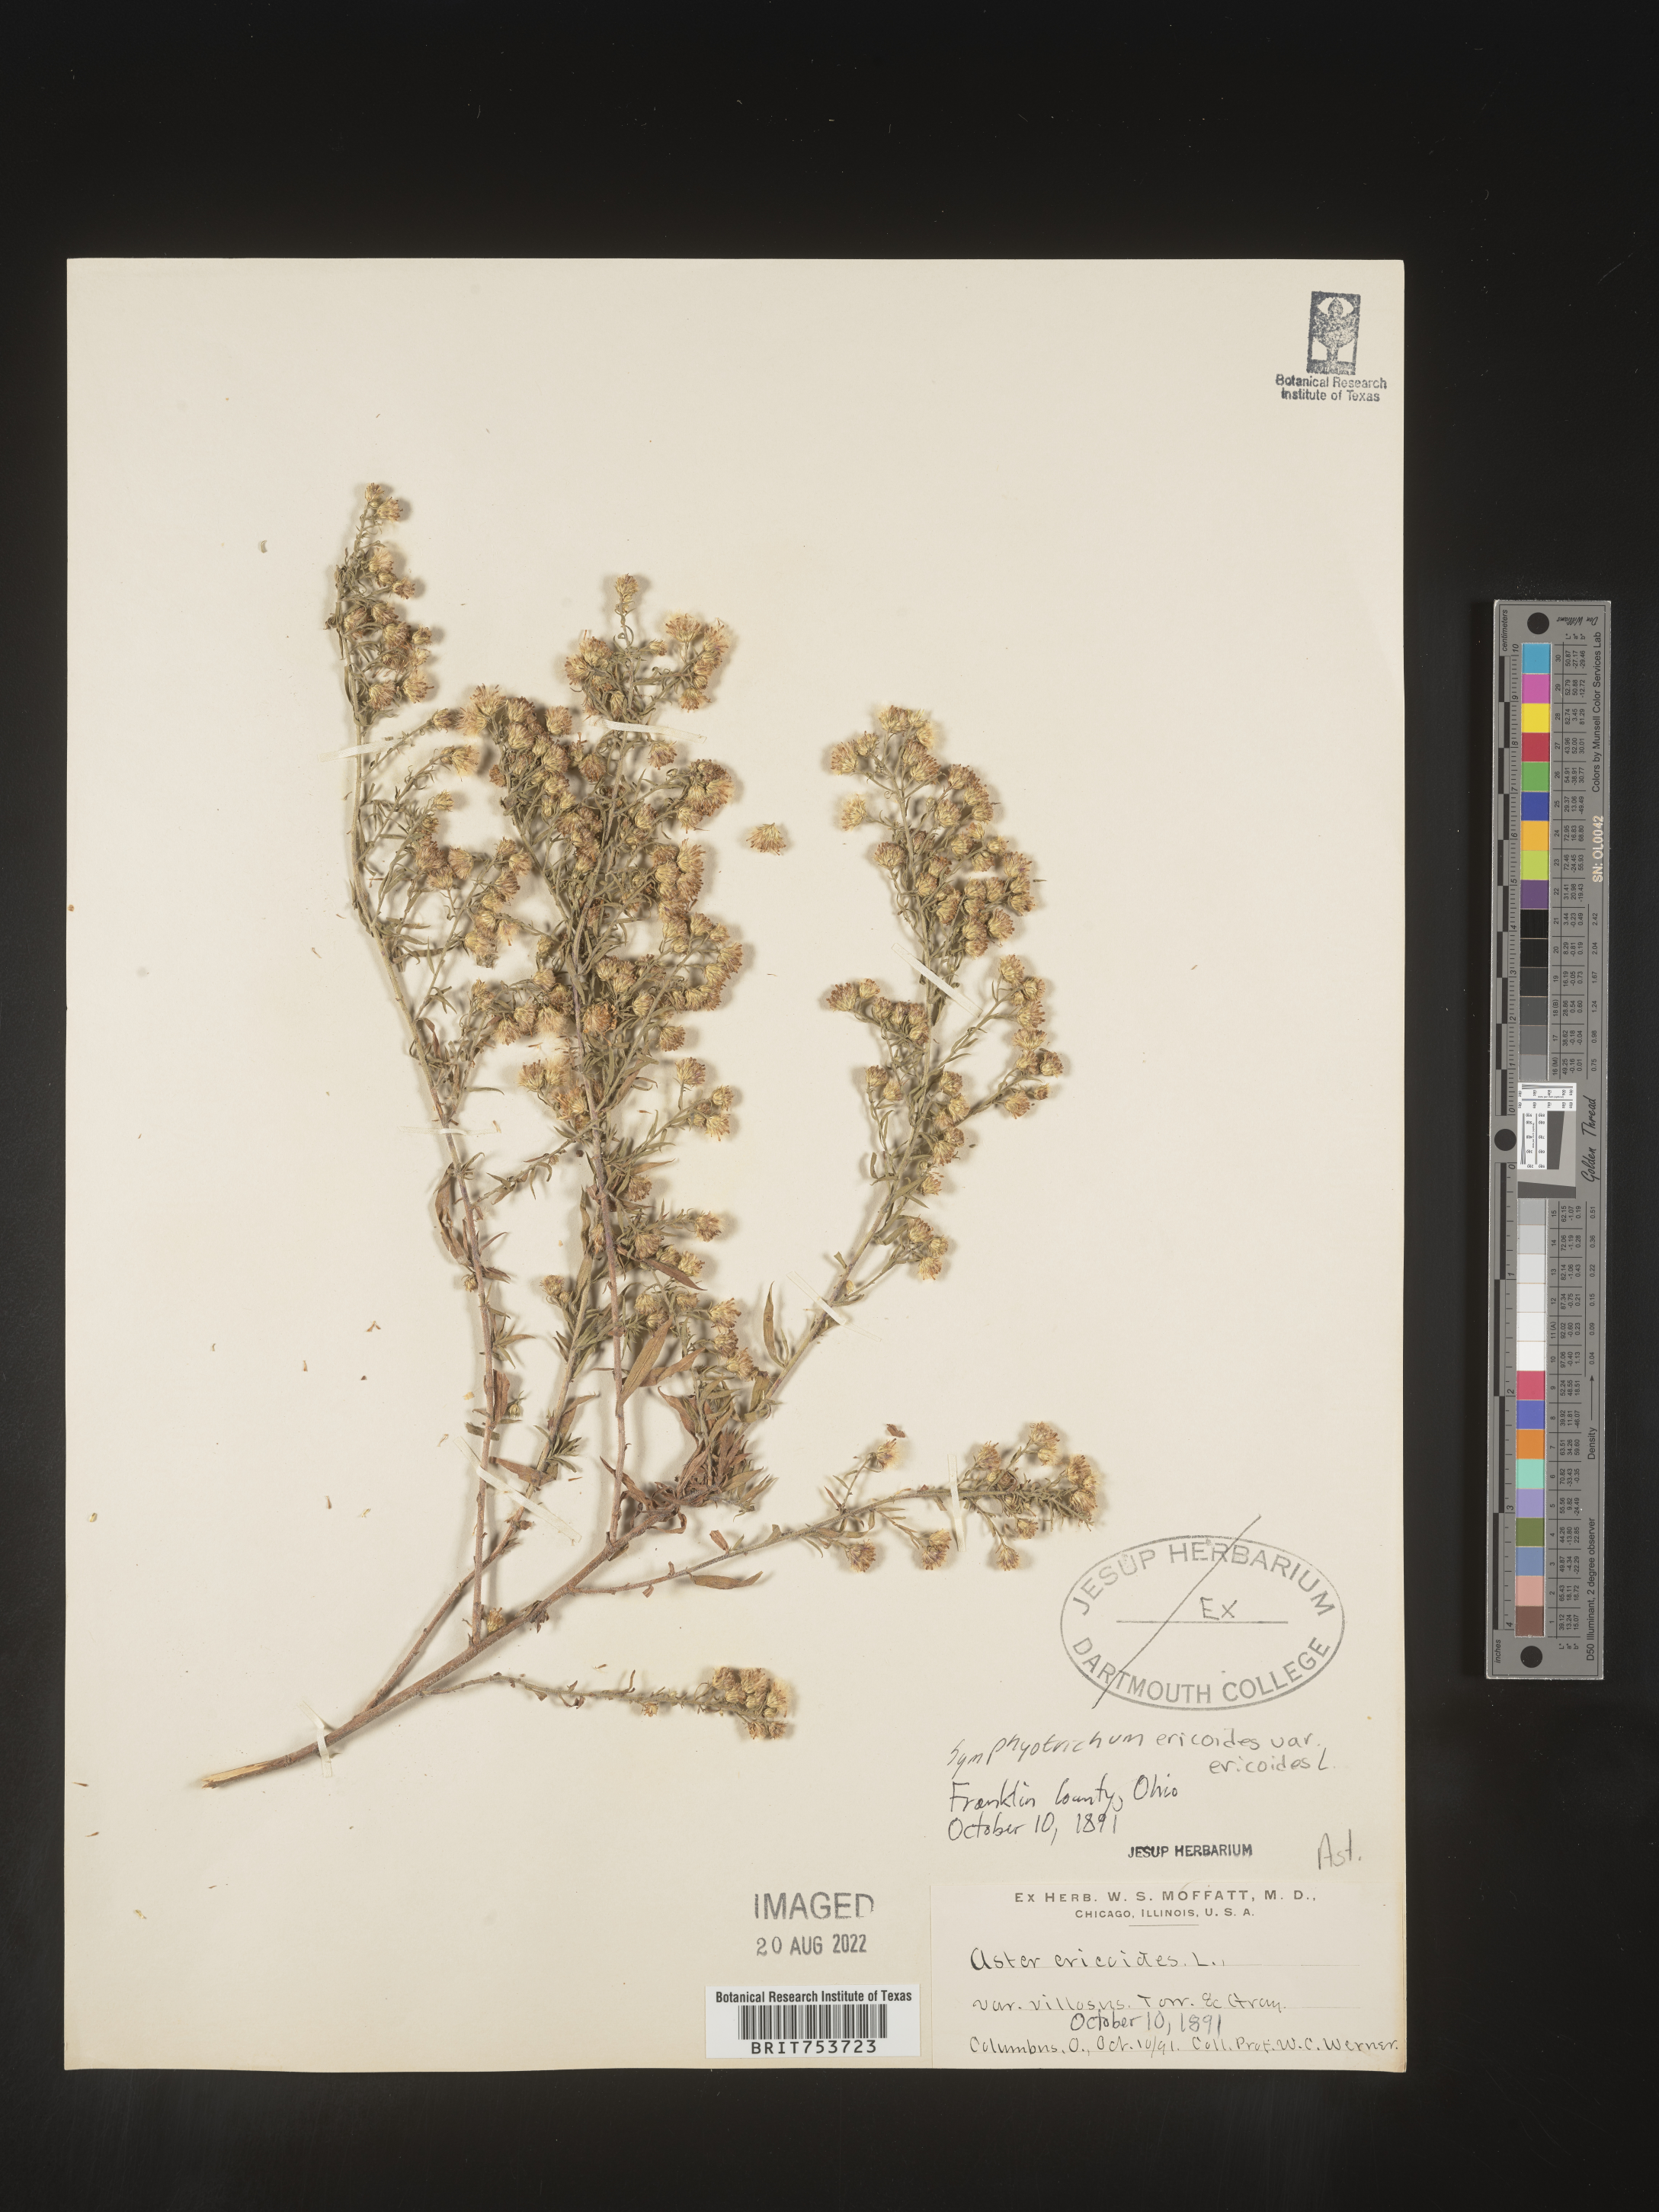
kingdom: Plantae
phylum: Tracheophyta
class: Magnoliopsida
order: Asterales
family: Asteraceae
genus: Symphyotrichum
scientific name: Symphyotrichum pilosum
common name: Awl aster
